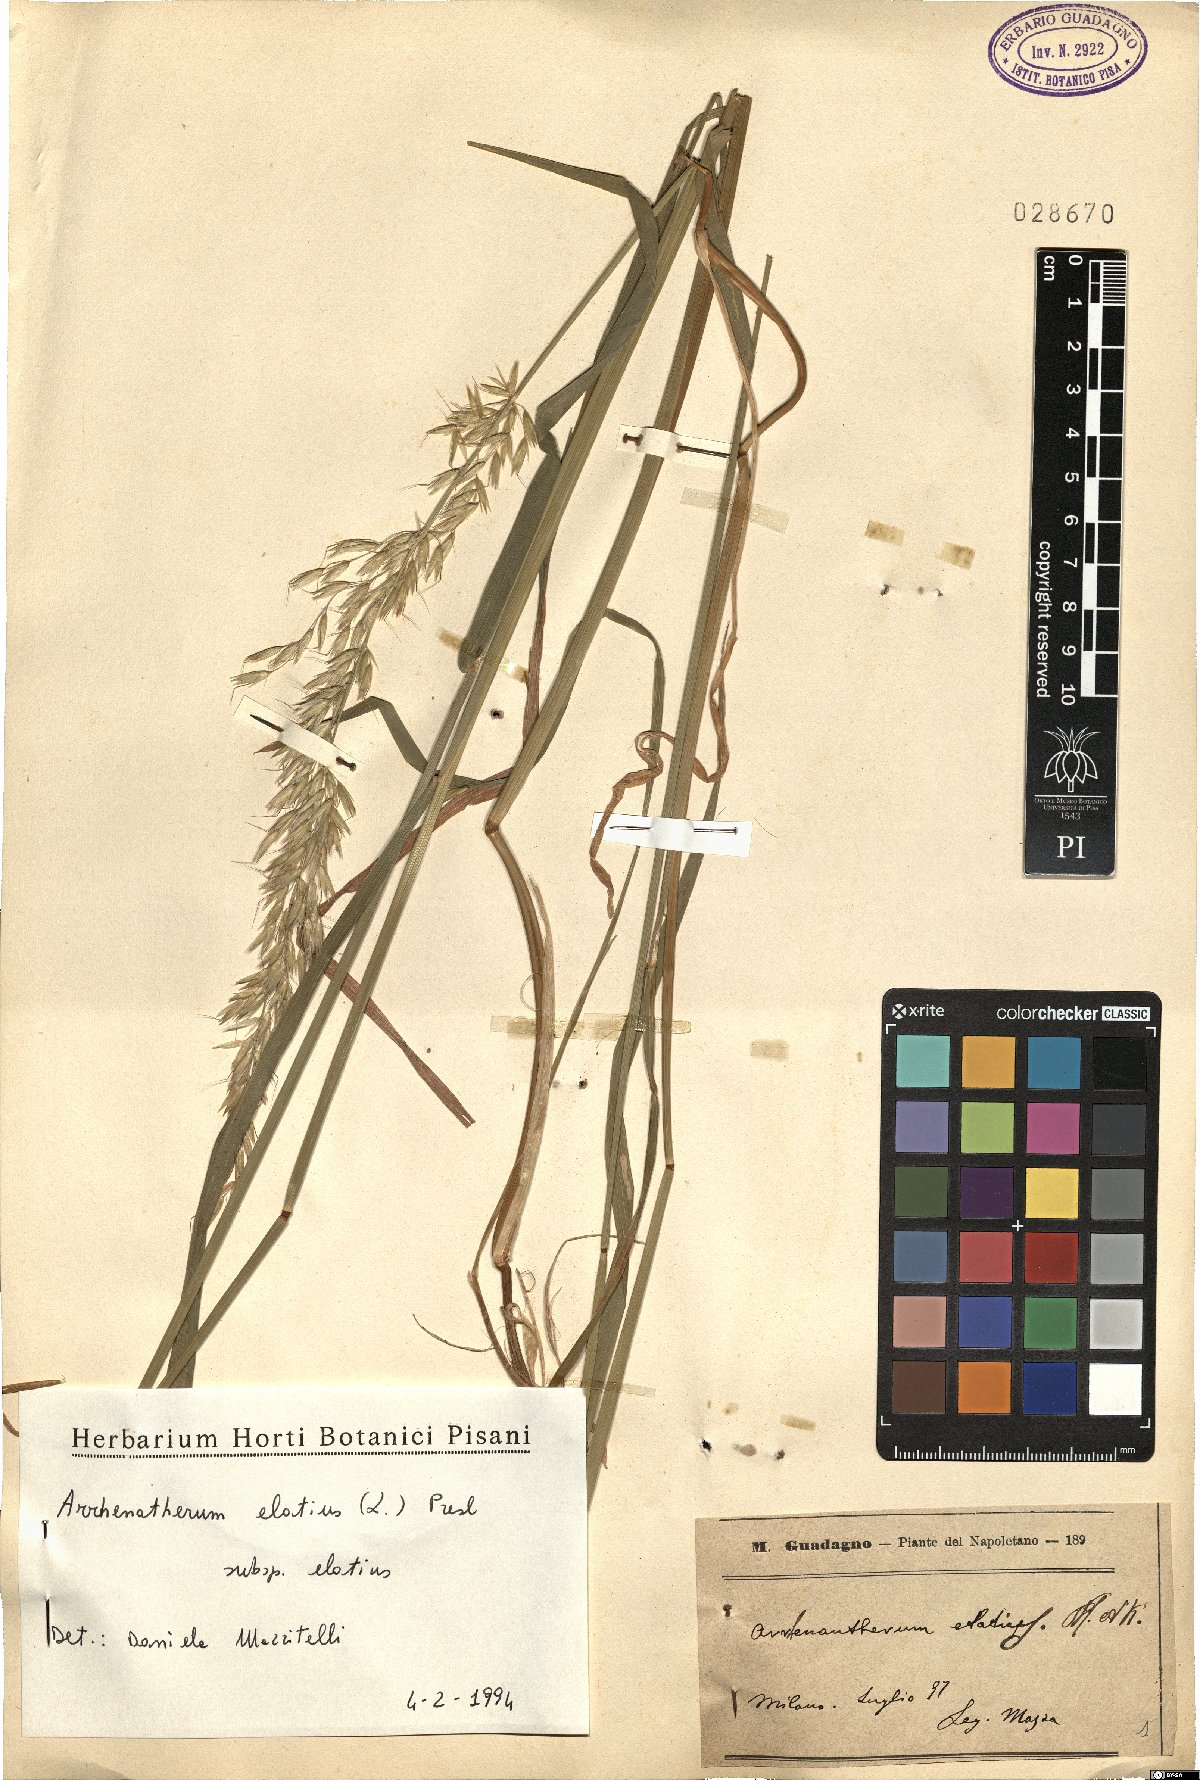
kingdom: Plantae
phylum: Tracheophyta
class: Liliopsida
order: Poales
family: Poaceae
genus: Arrhenatherum
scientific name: Arrhenatherum elatius
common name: Tall oatgrass
